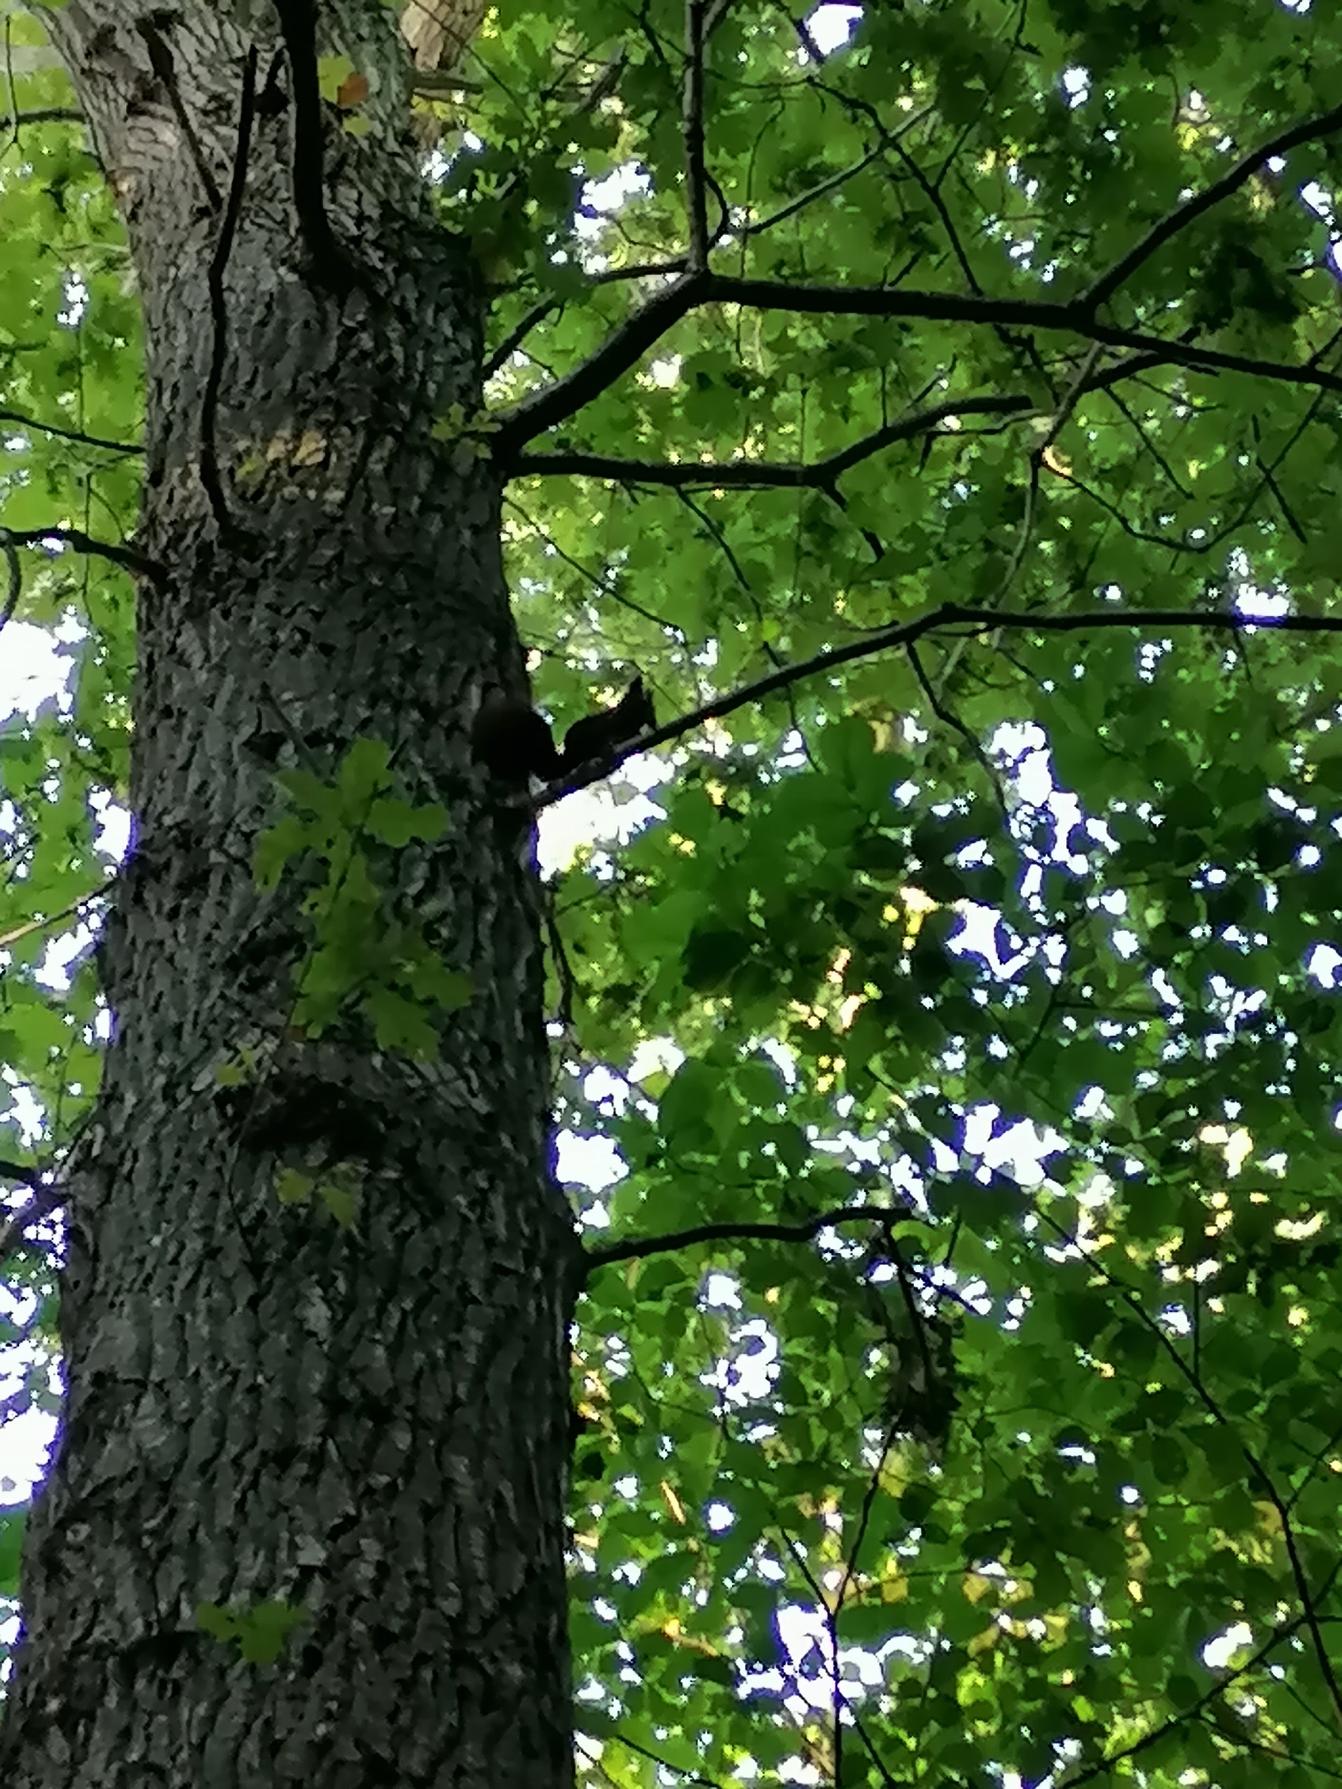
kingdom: Animalia
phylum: Chordata
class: Mammalia
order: Rodentia
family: Sciuridae
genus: Sciurus
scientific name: Sciurus vulgaris
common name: Egern
